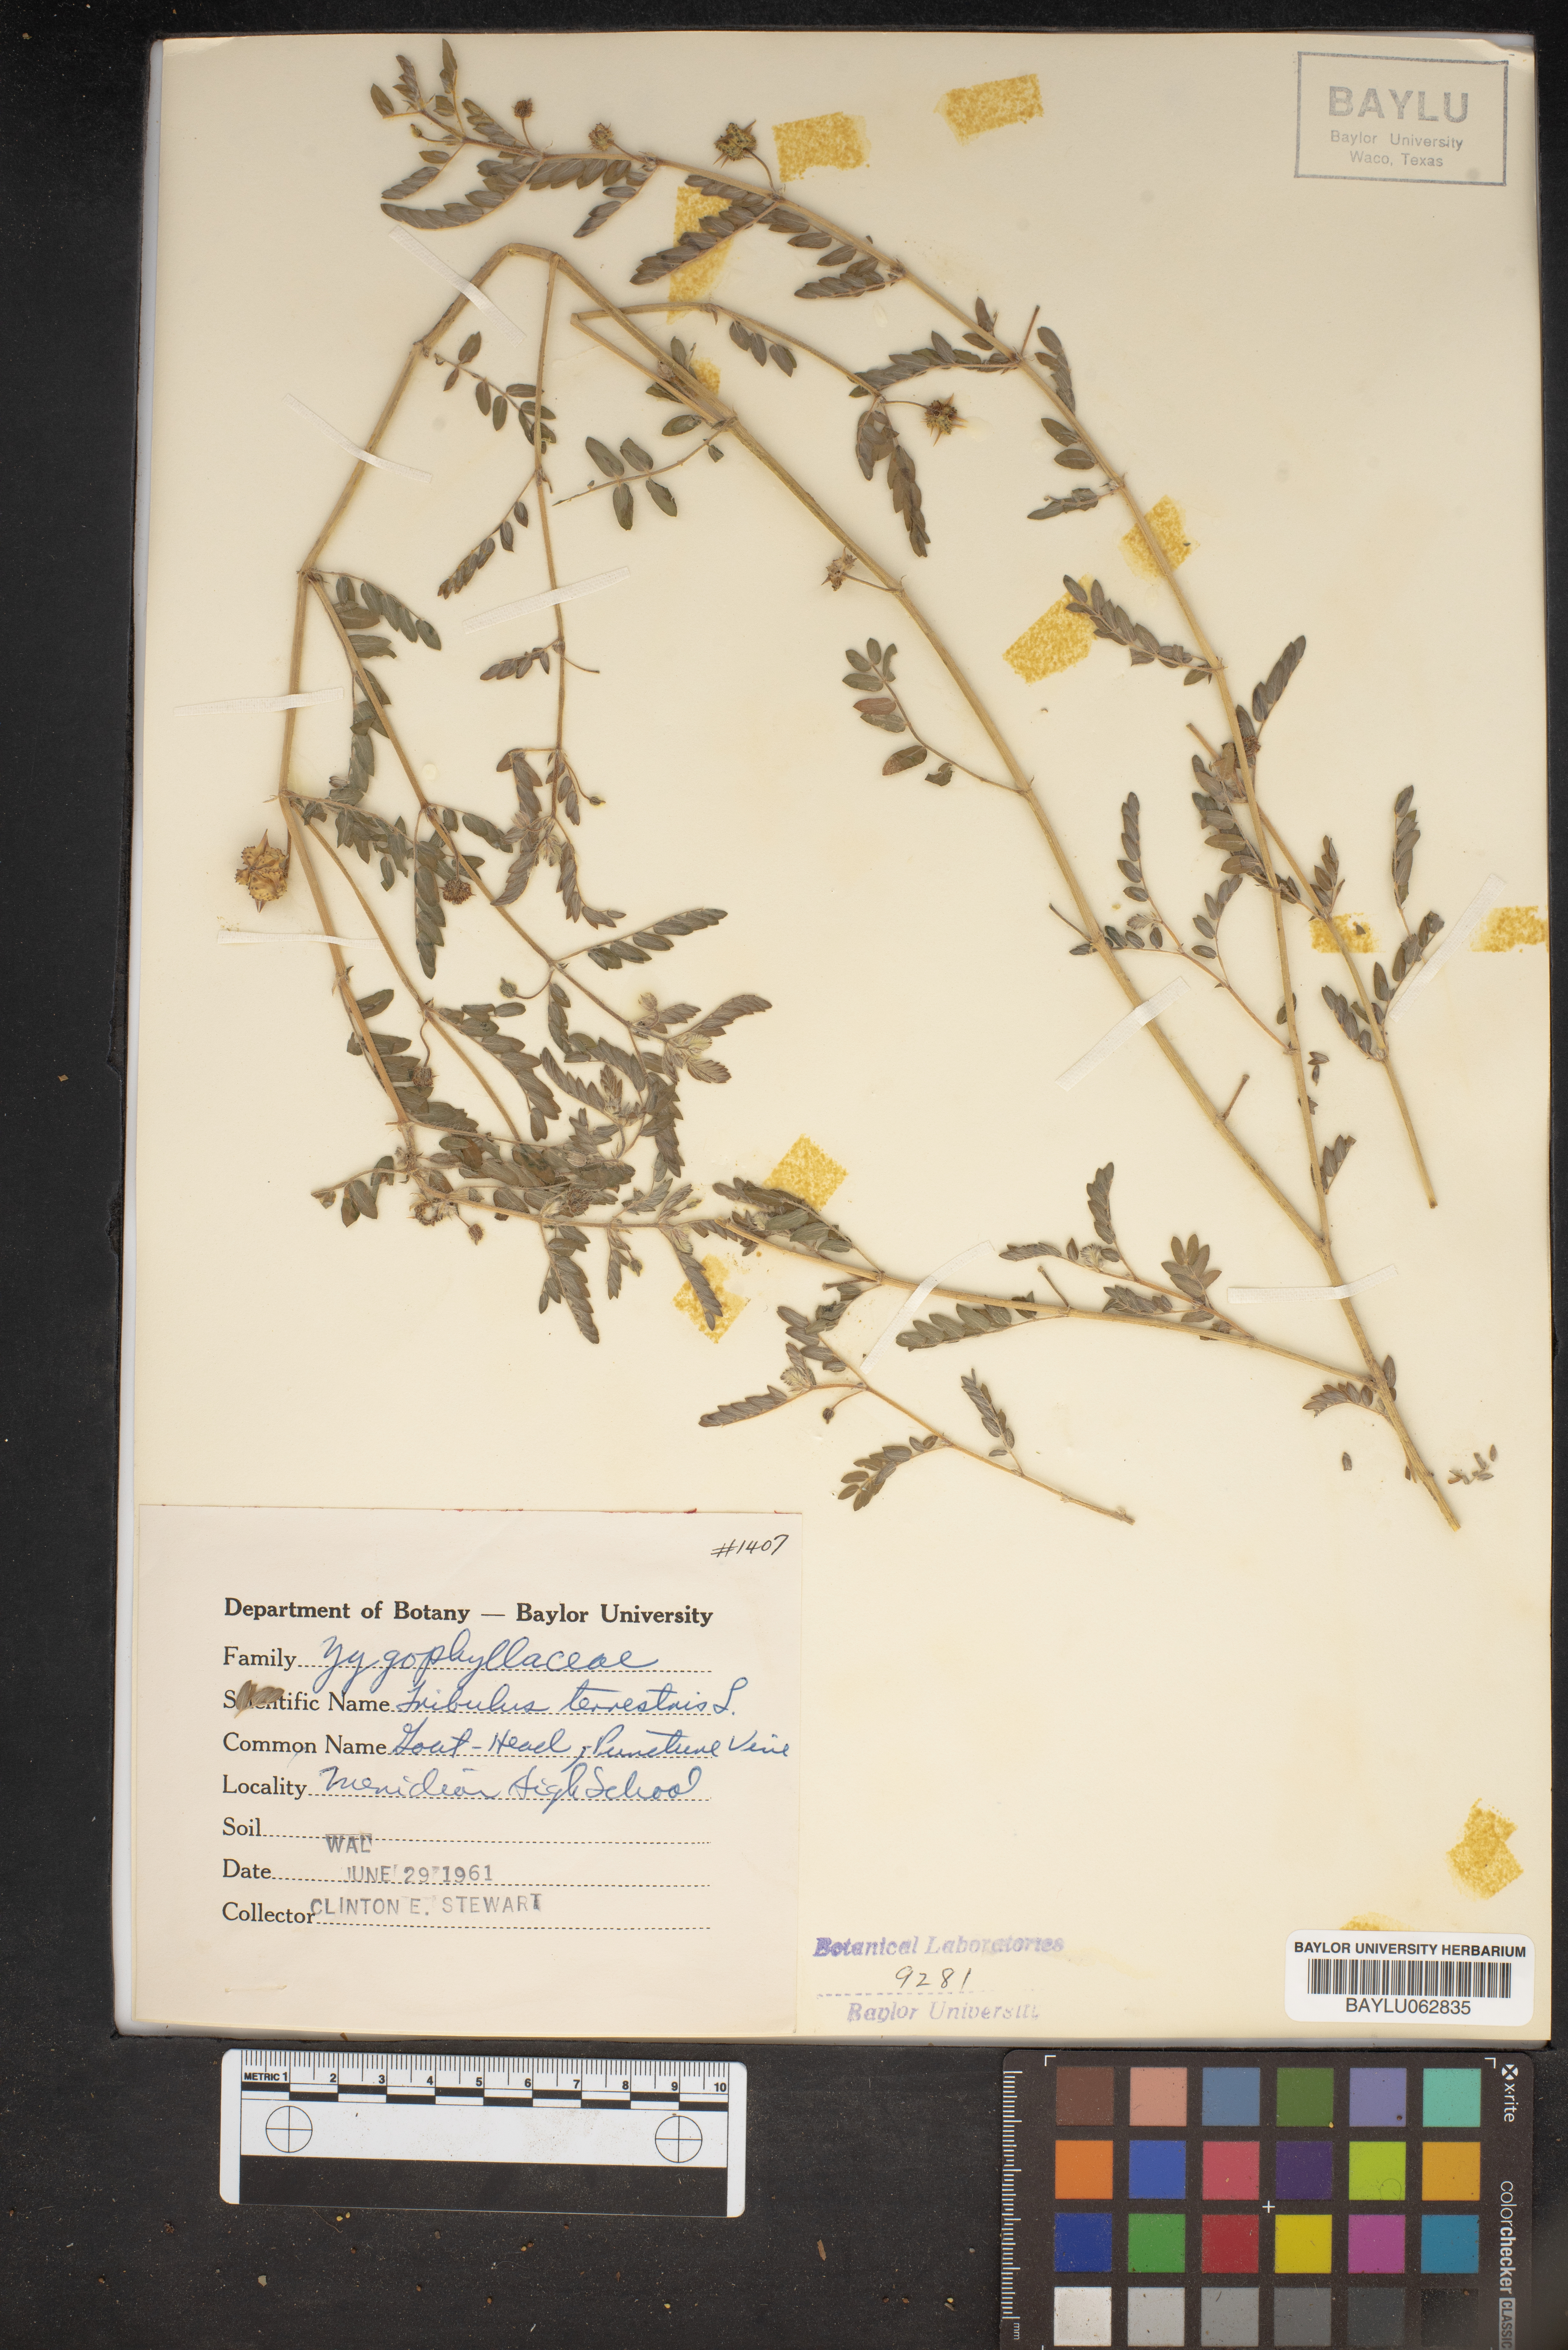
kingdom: Plantae
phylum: Tracheophyta
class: Magnoliopsida
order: Zygophyllales
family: Zygophyllaceae
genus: Tribulus
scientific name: Tribulus terrestris
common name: Puncturevine
